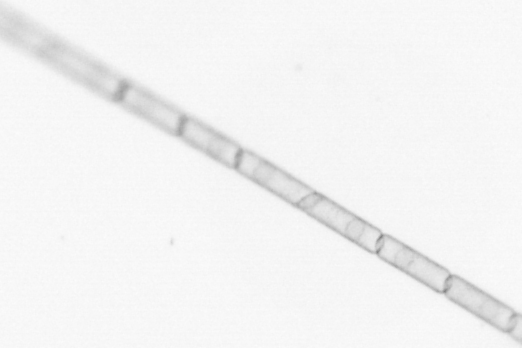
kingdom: Chromista
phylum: Ochrophyta
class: Bacillariophyceae
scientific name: Bacillariophyceae
